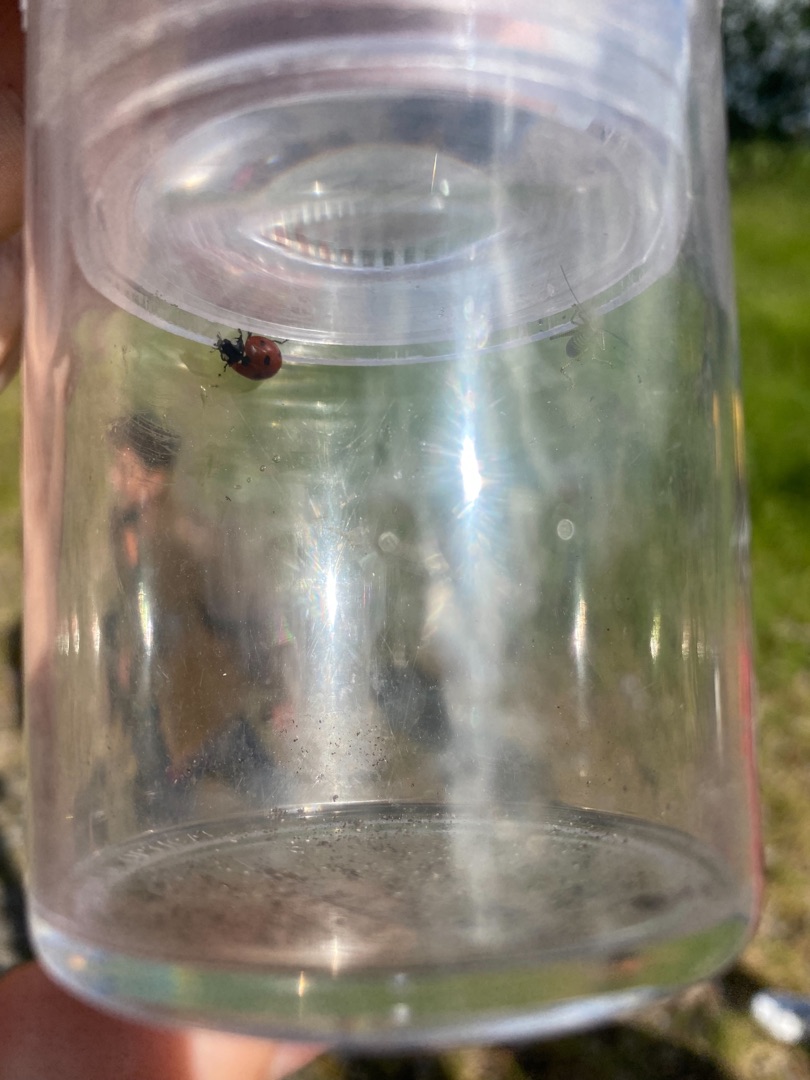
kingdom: Animalia
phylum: Arthropoda
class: Insecta
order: Coleoptera
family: Coccinellidae
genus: Coccinella
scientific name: Coccinella septempunctata
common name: Syvplettet mariehøne
